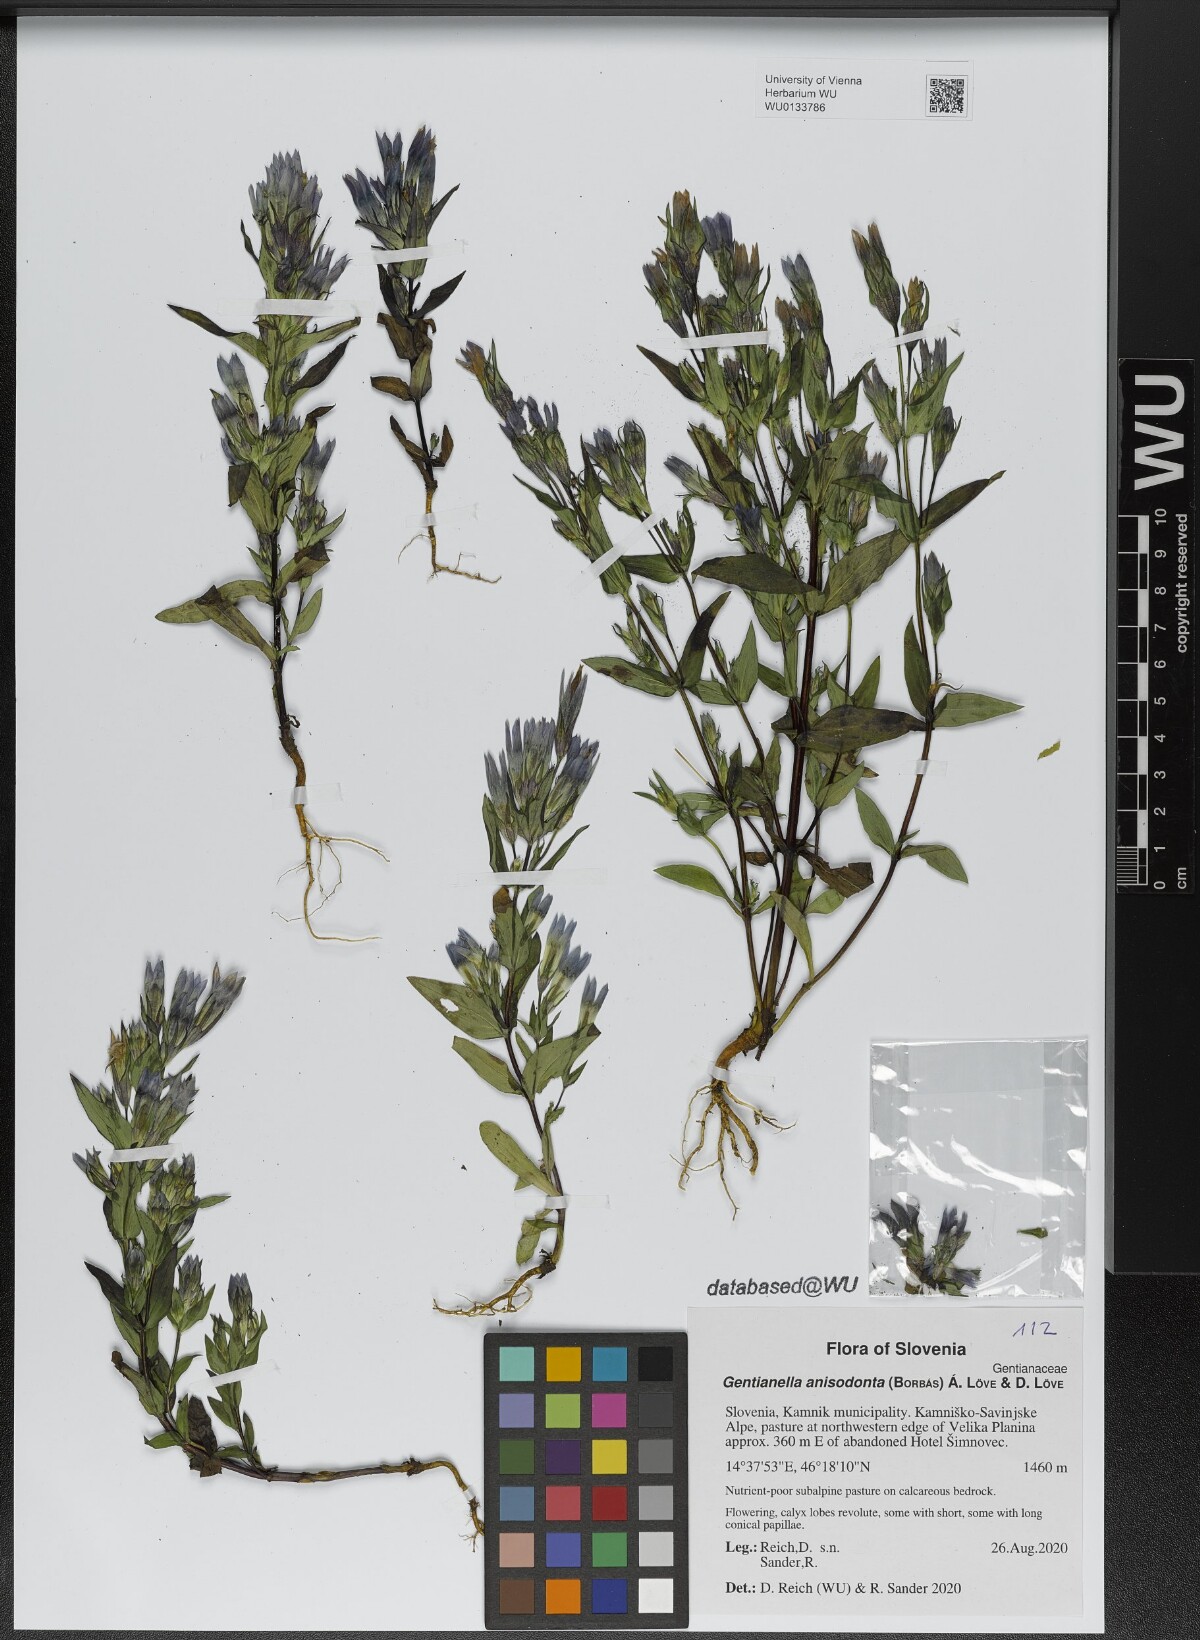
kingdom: Plantae
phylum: Tracheophyta
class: Magnoliopsida
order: Gentianales
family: Gentianaceae
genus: Gentianella
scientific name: Gentianella anisodonta
